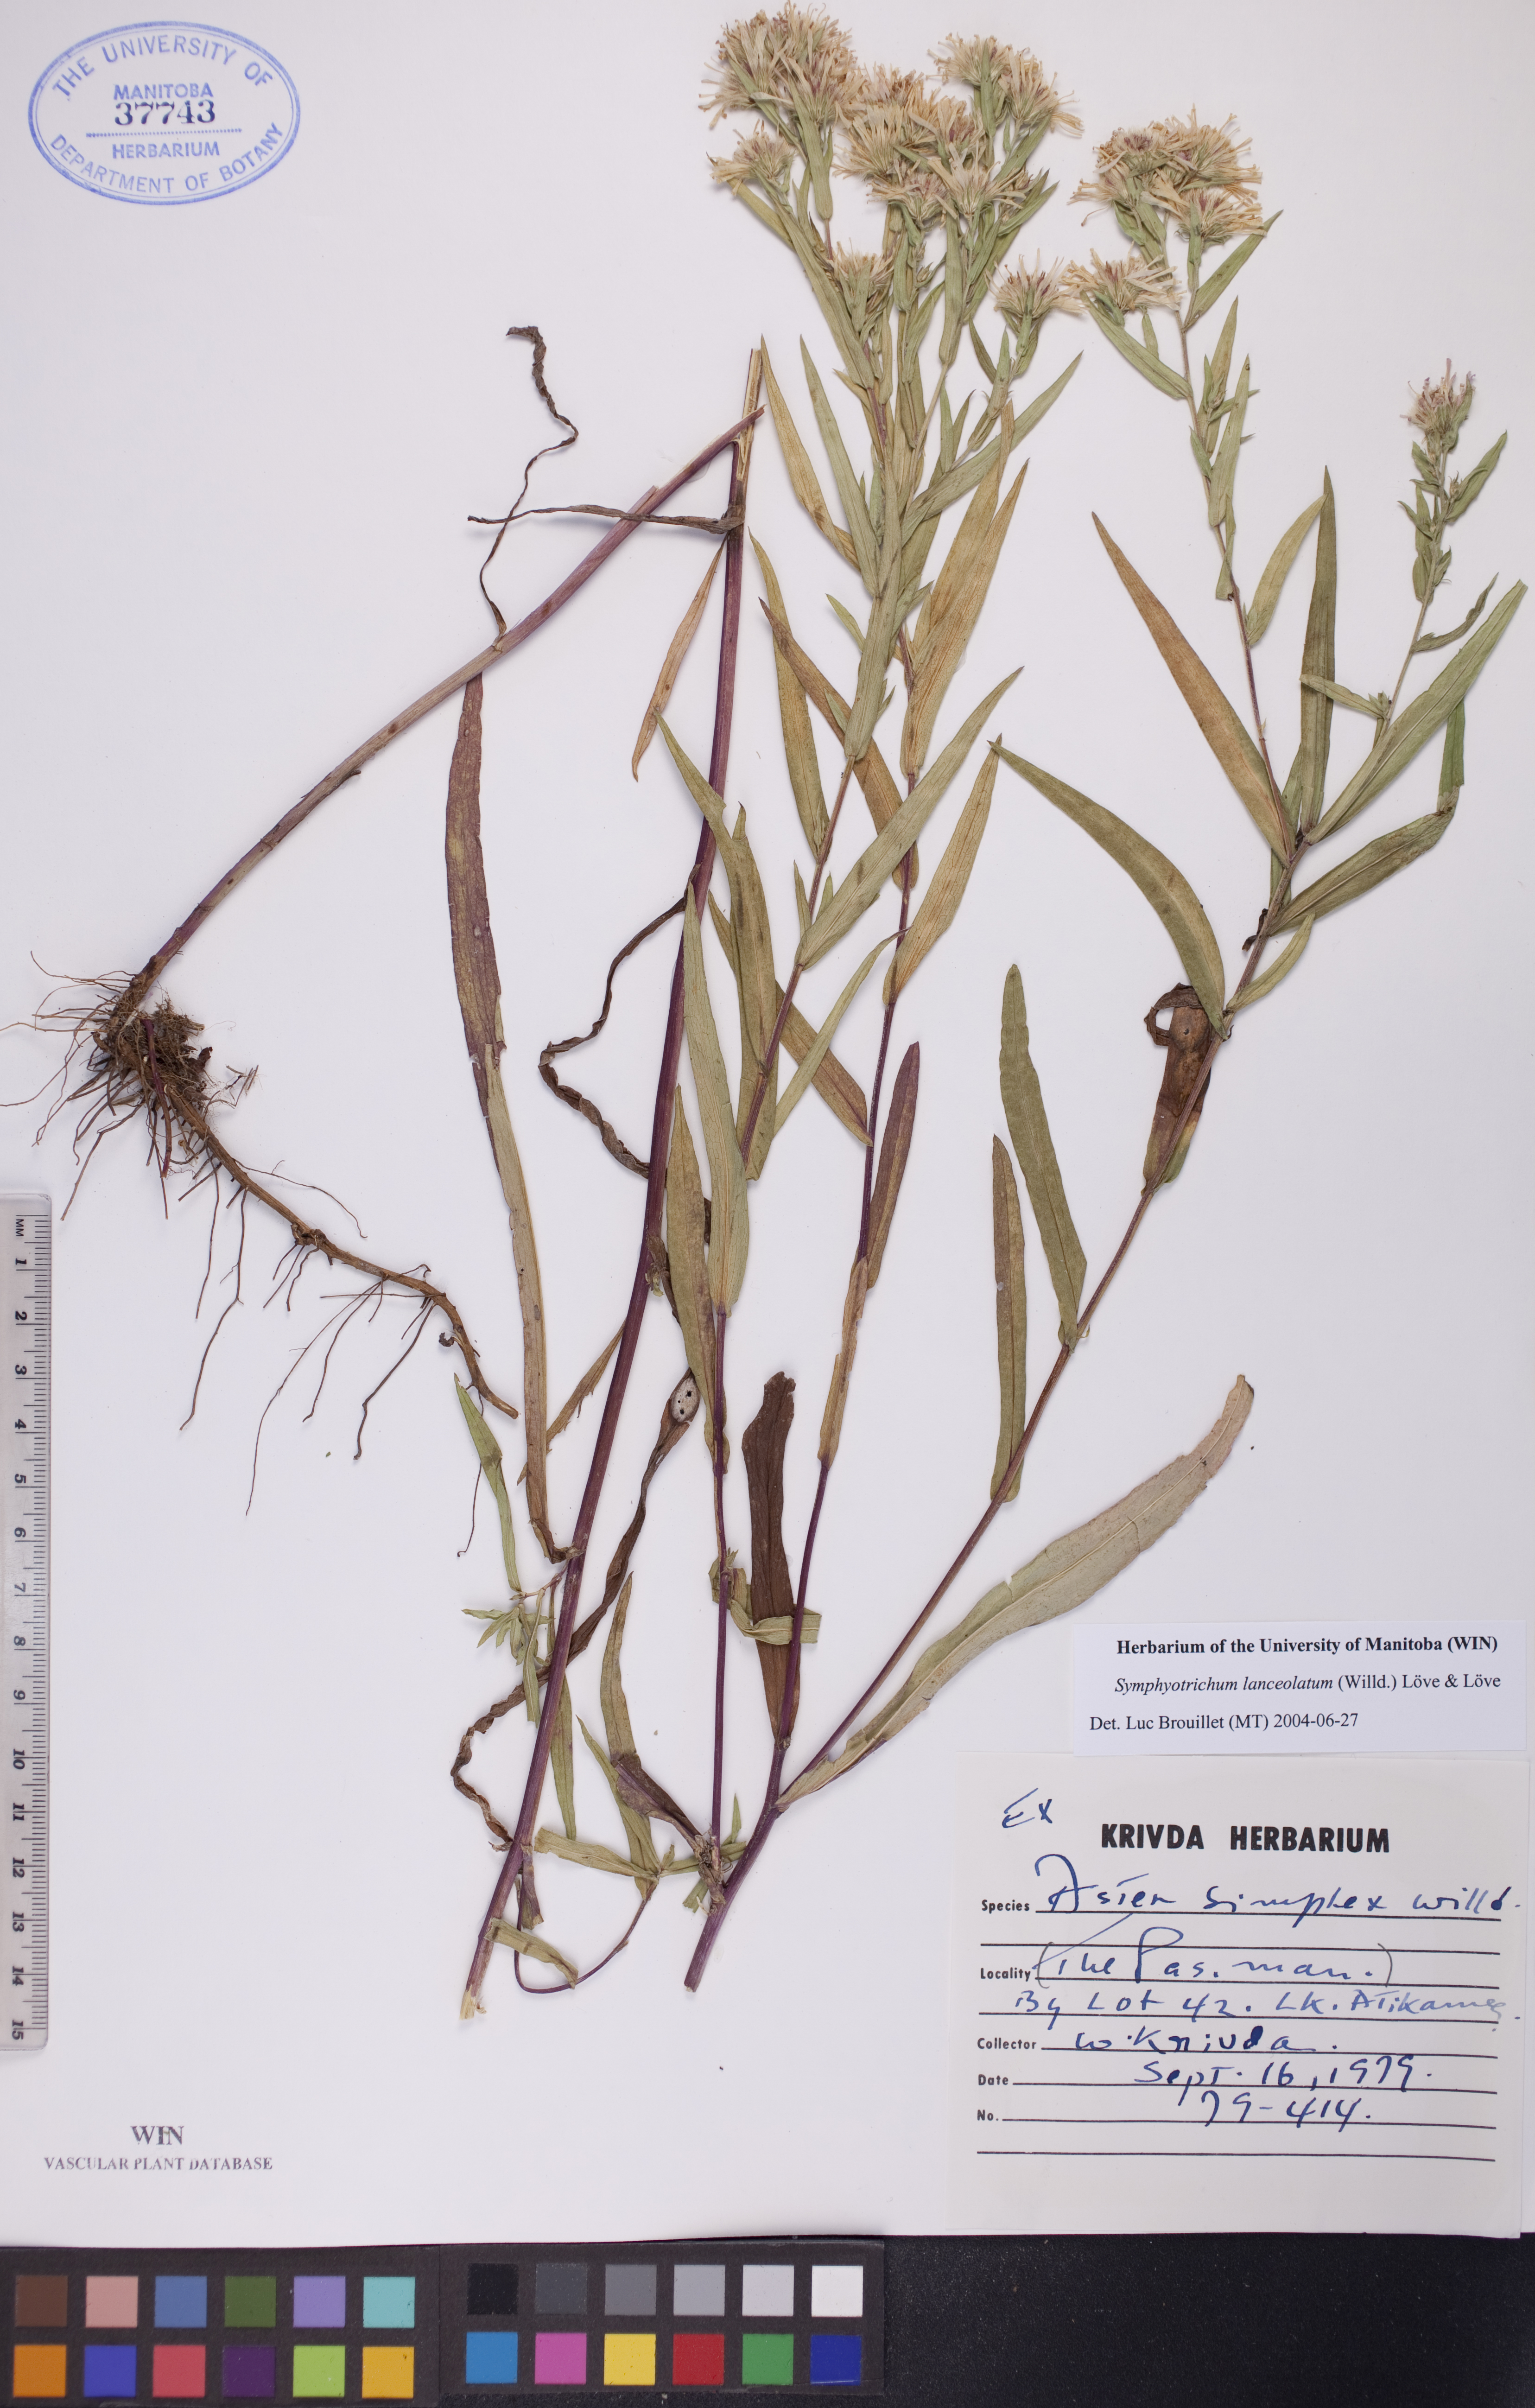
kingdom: Plantae
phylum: Tracheophyta
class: Magnoliopsida
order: Asterales
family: Asteraceae
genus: Symphyotrichum
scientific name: Symphyotrichum lanceolatum
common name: Panicled aster
